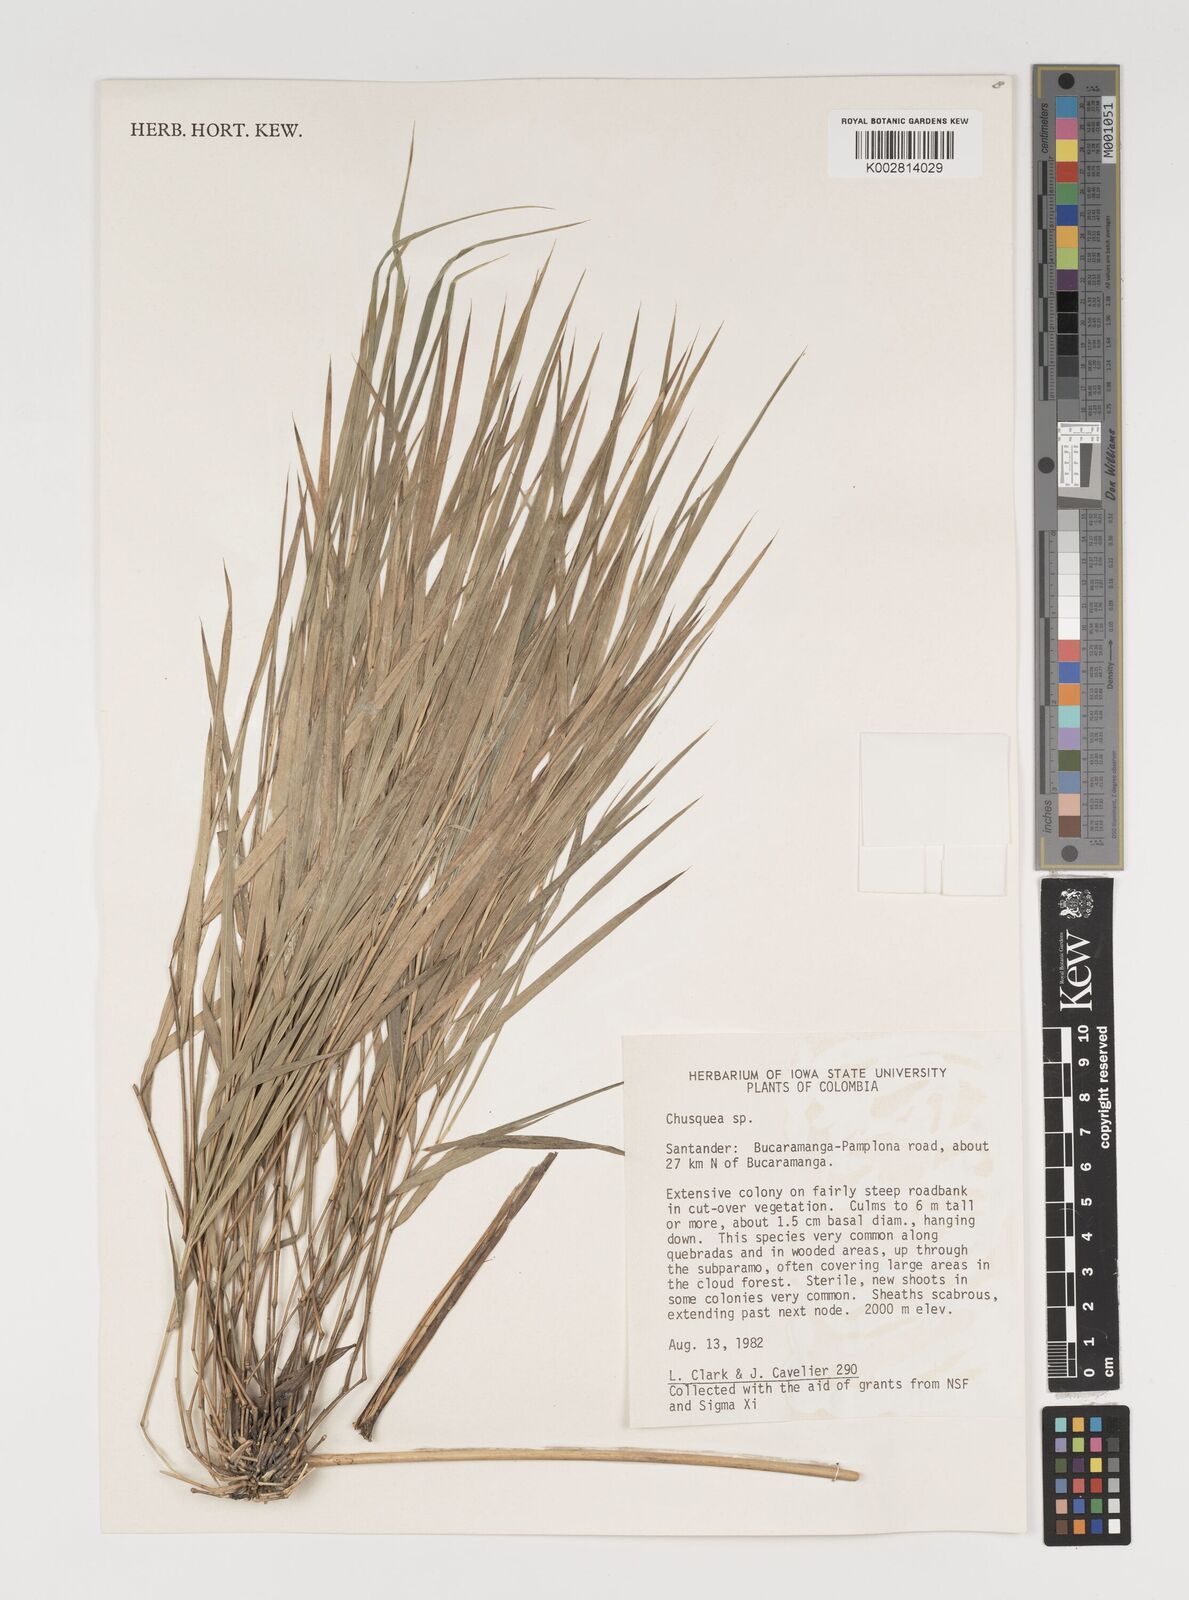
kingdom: Plantae
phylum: Tracheophyta
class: Liliopsida
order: Poales
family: Poaceae
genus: Chusquea
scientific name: Chusquea
